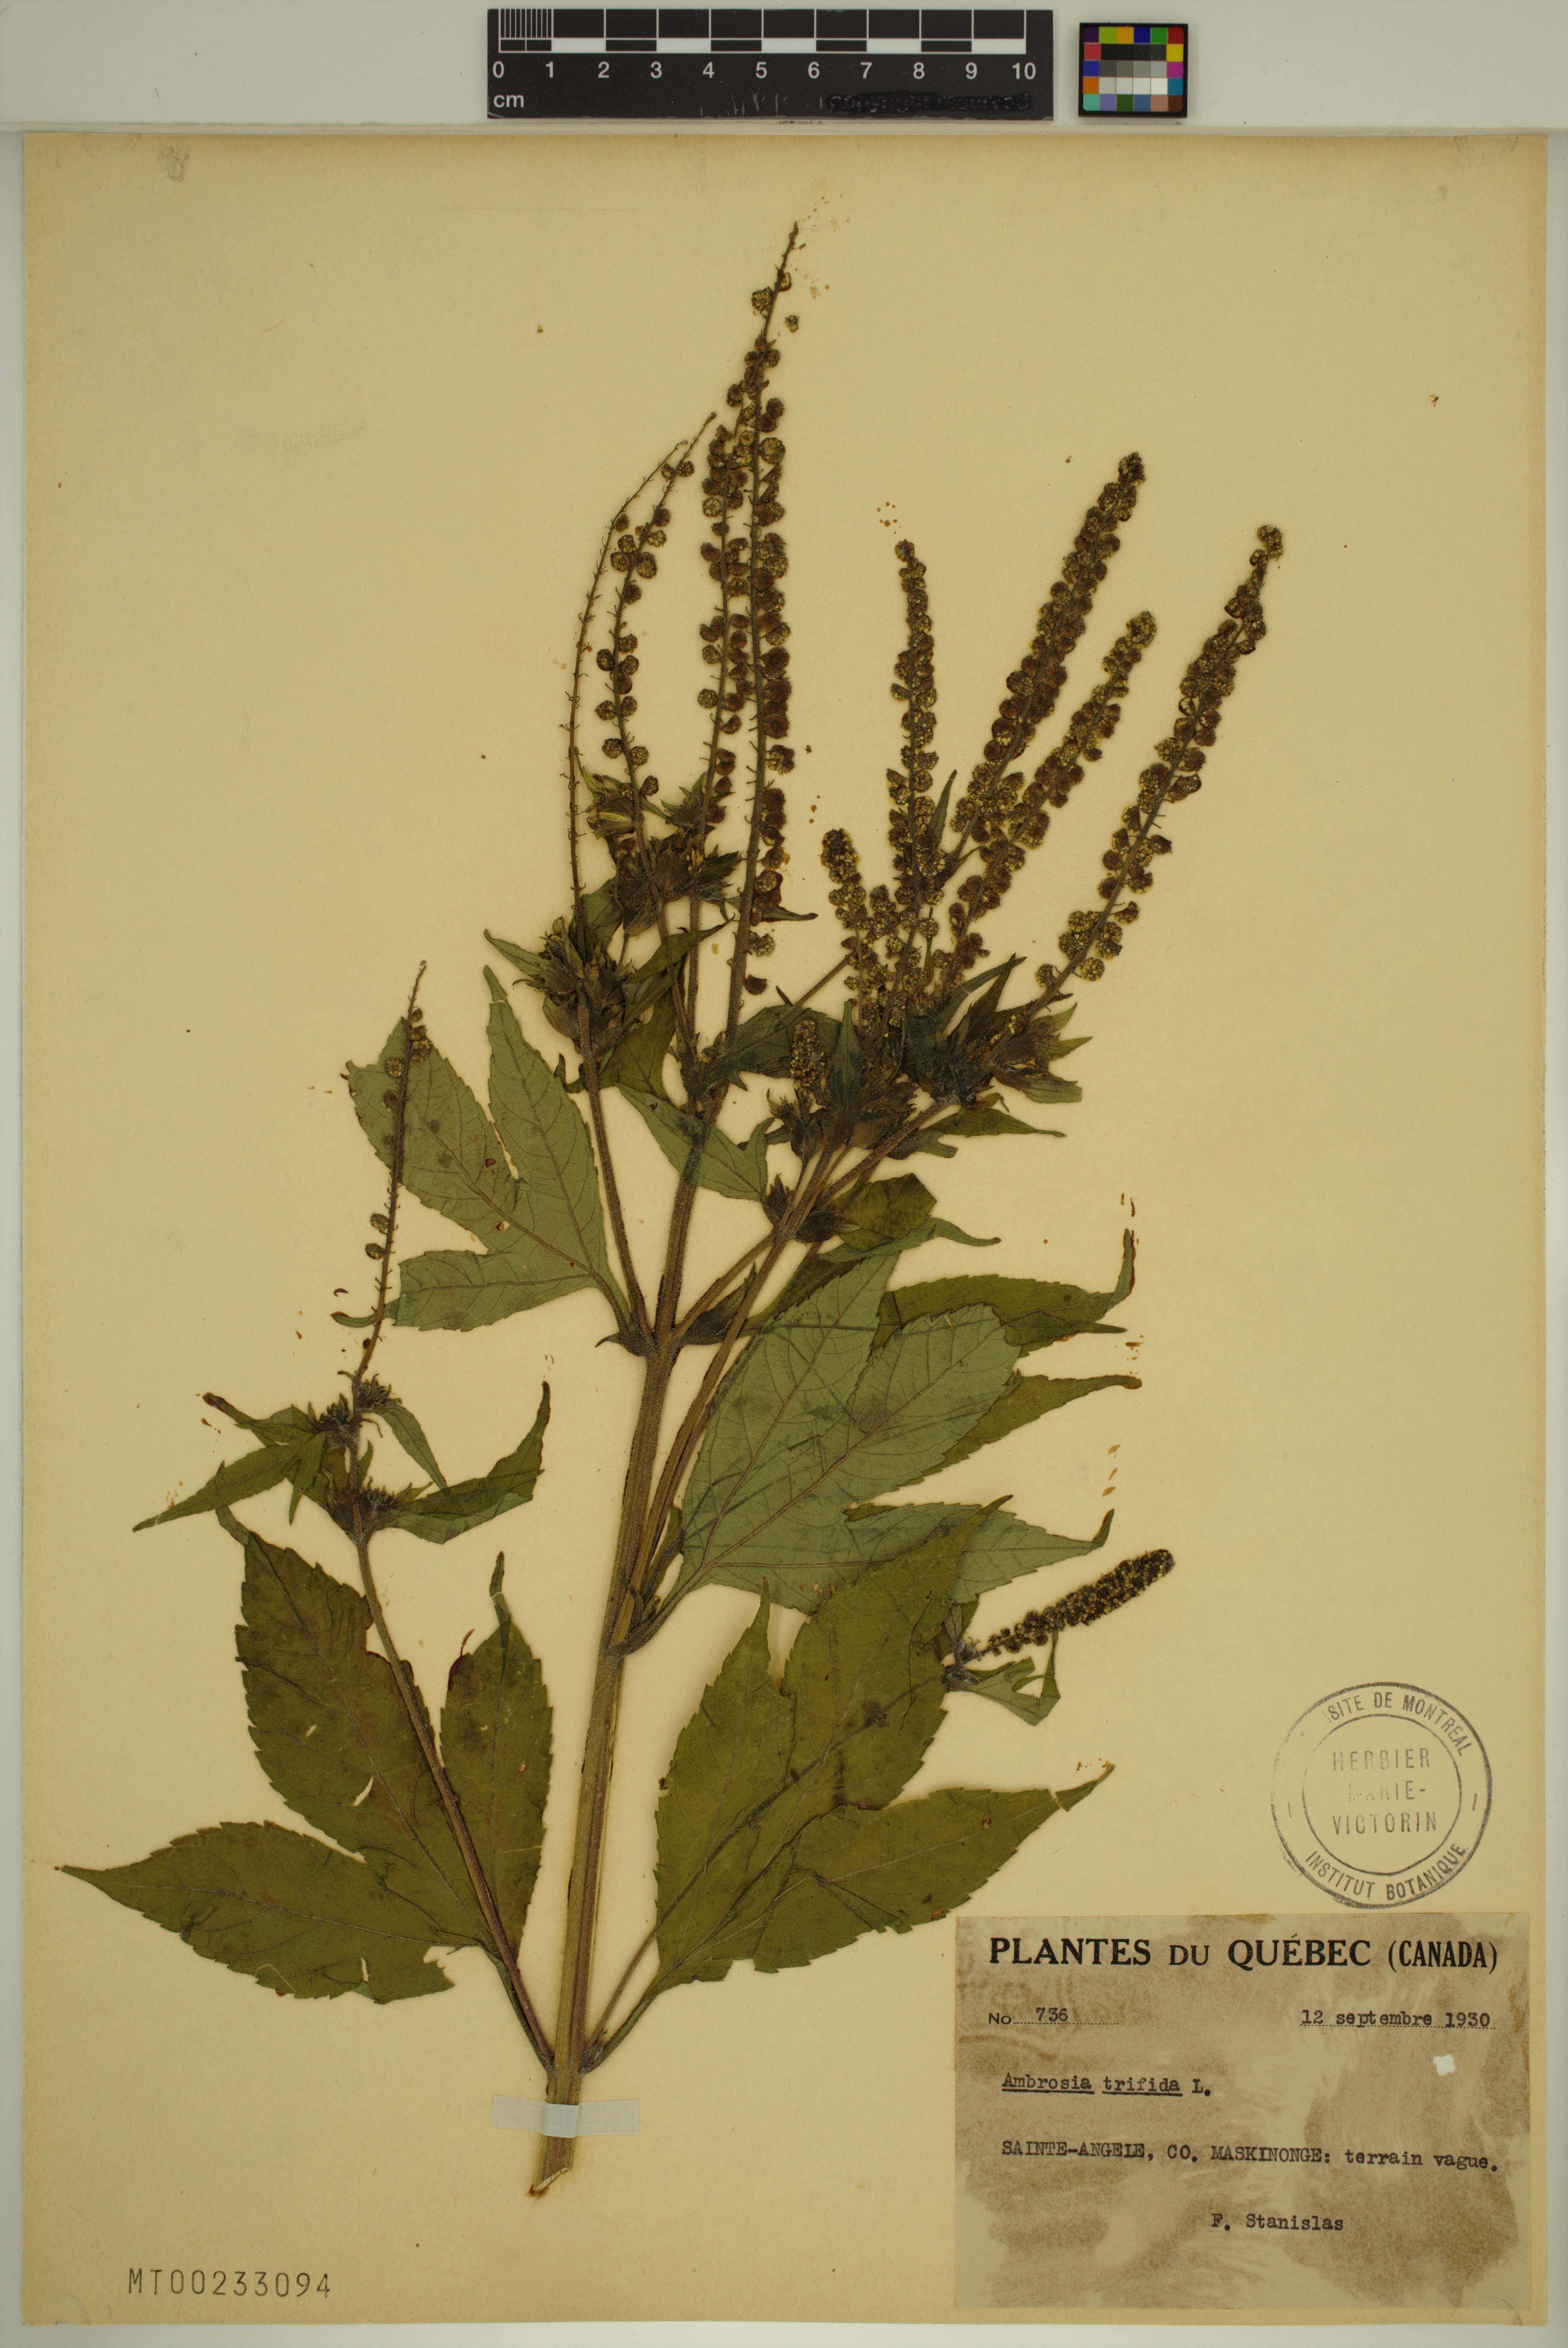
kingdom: Plantae
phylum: Tracheophyta
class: Magnoliopsida
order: Asterales
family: Asteraceae
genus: Ambrosia
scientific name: Ambrosia trifida
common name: Giant ragweed
